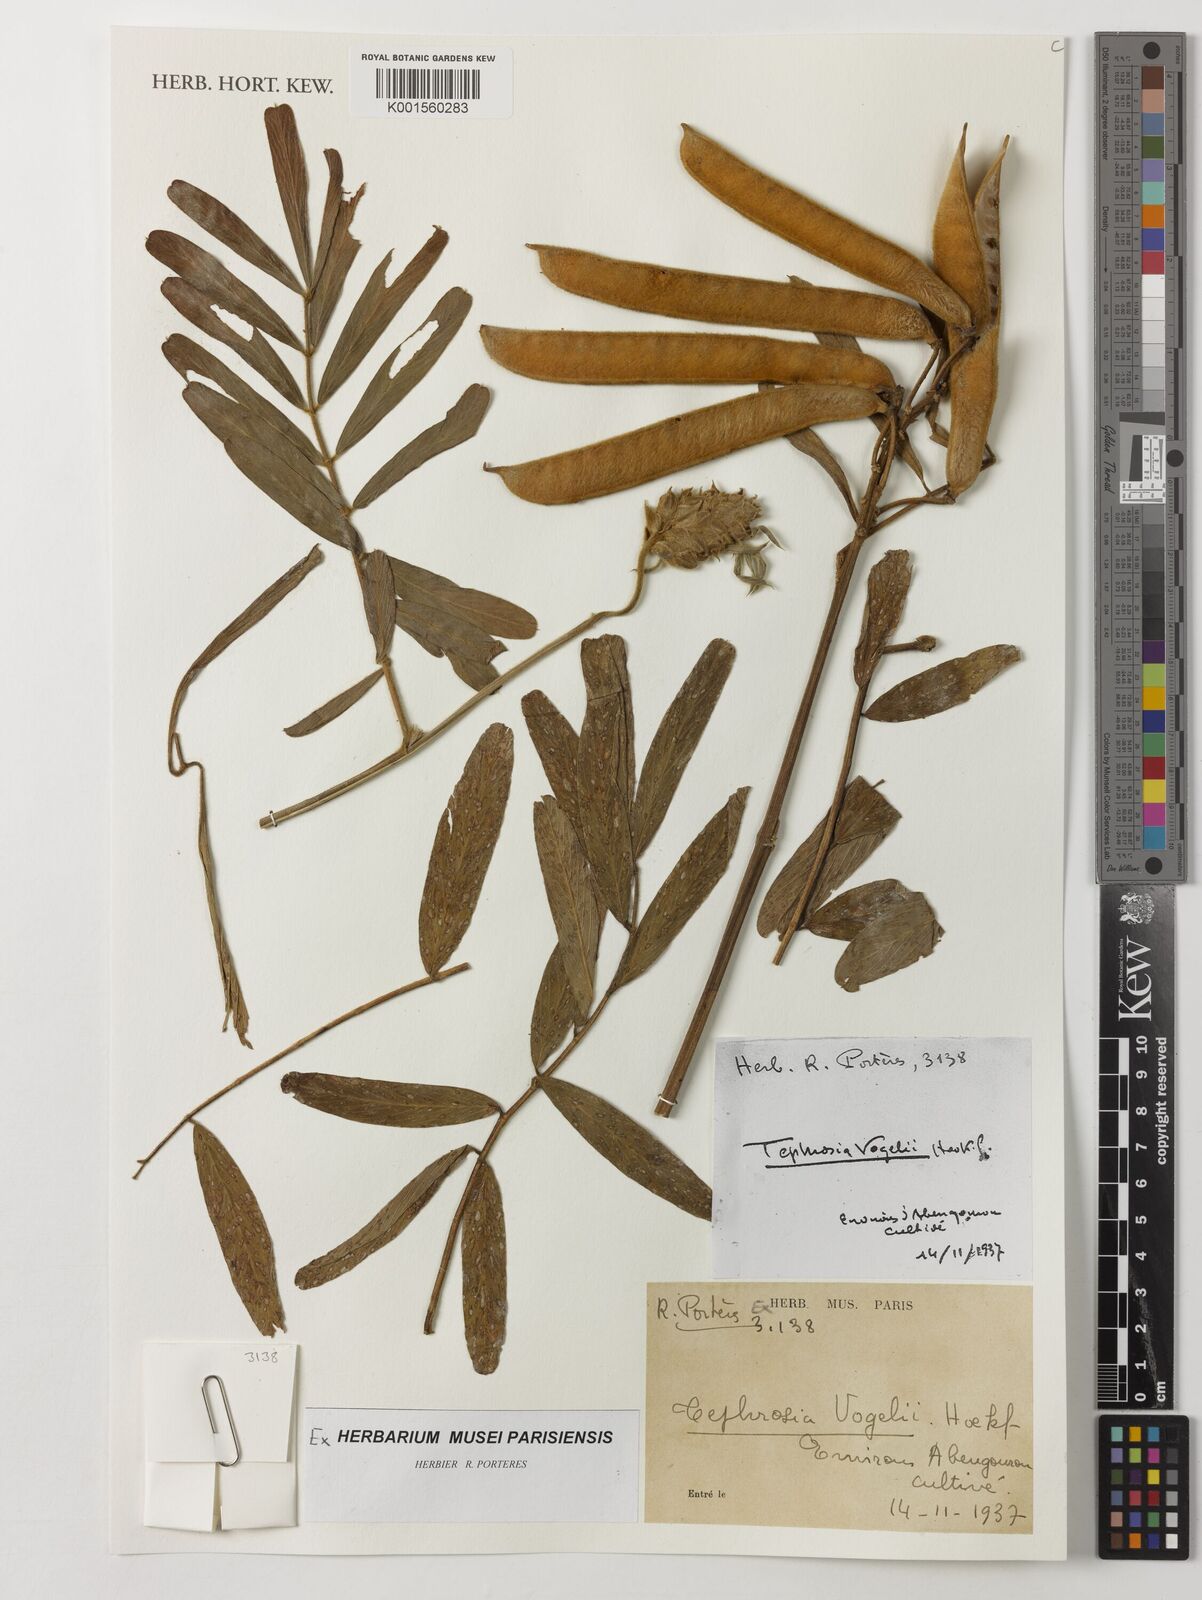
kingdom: Plantae
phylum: Tracheophyta
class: Magnoliopsida
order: Fabales
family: Fabaceae
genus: Tephrosia
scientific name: Tephrosia vogelii
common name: Vogel tephrosia
